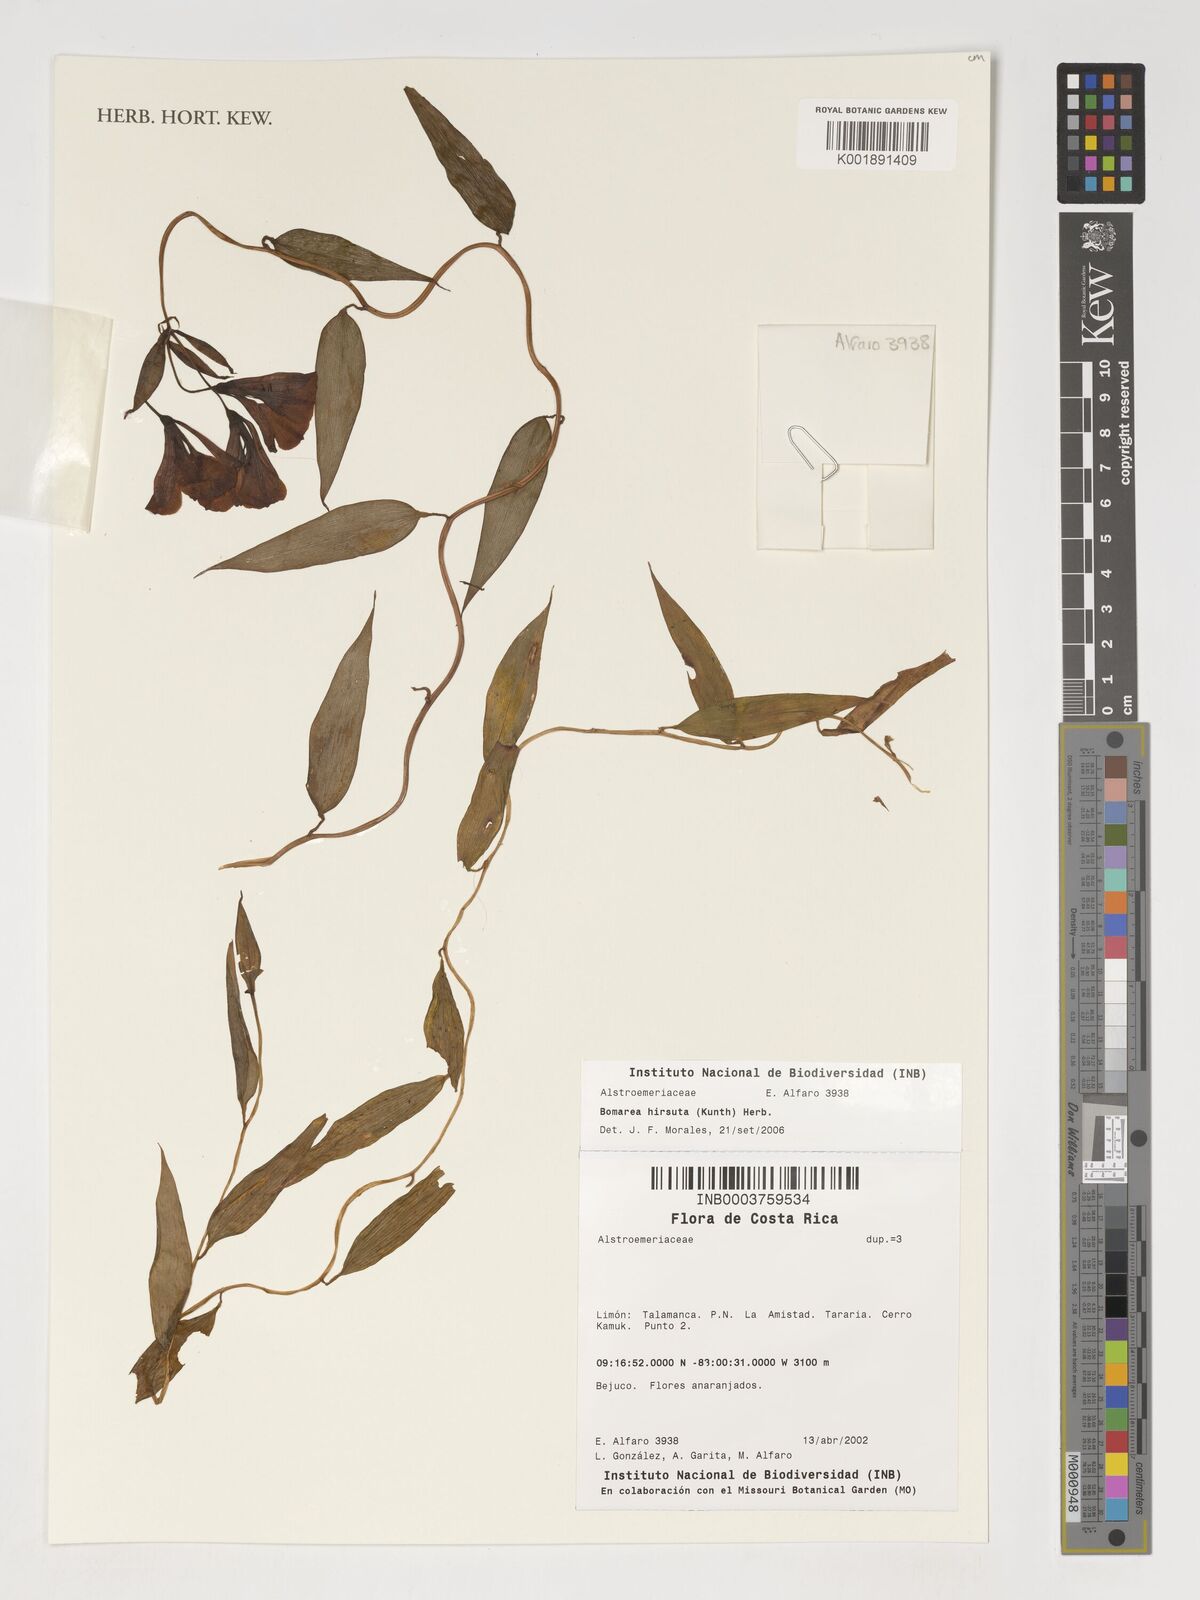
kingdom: Plantae
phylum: Tracheophyta
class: Liliopsida
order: Liliales
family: Alstroemeriaceae
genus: Bomarea
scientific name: Bomarea hirsuta
